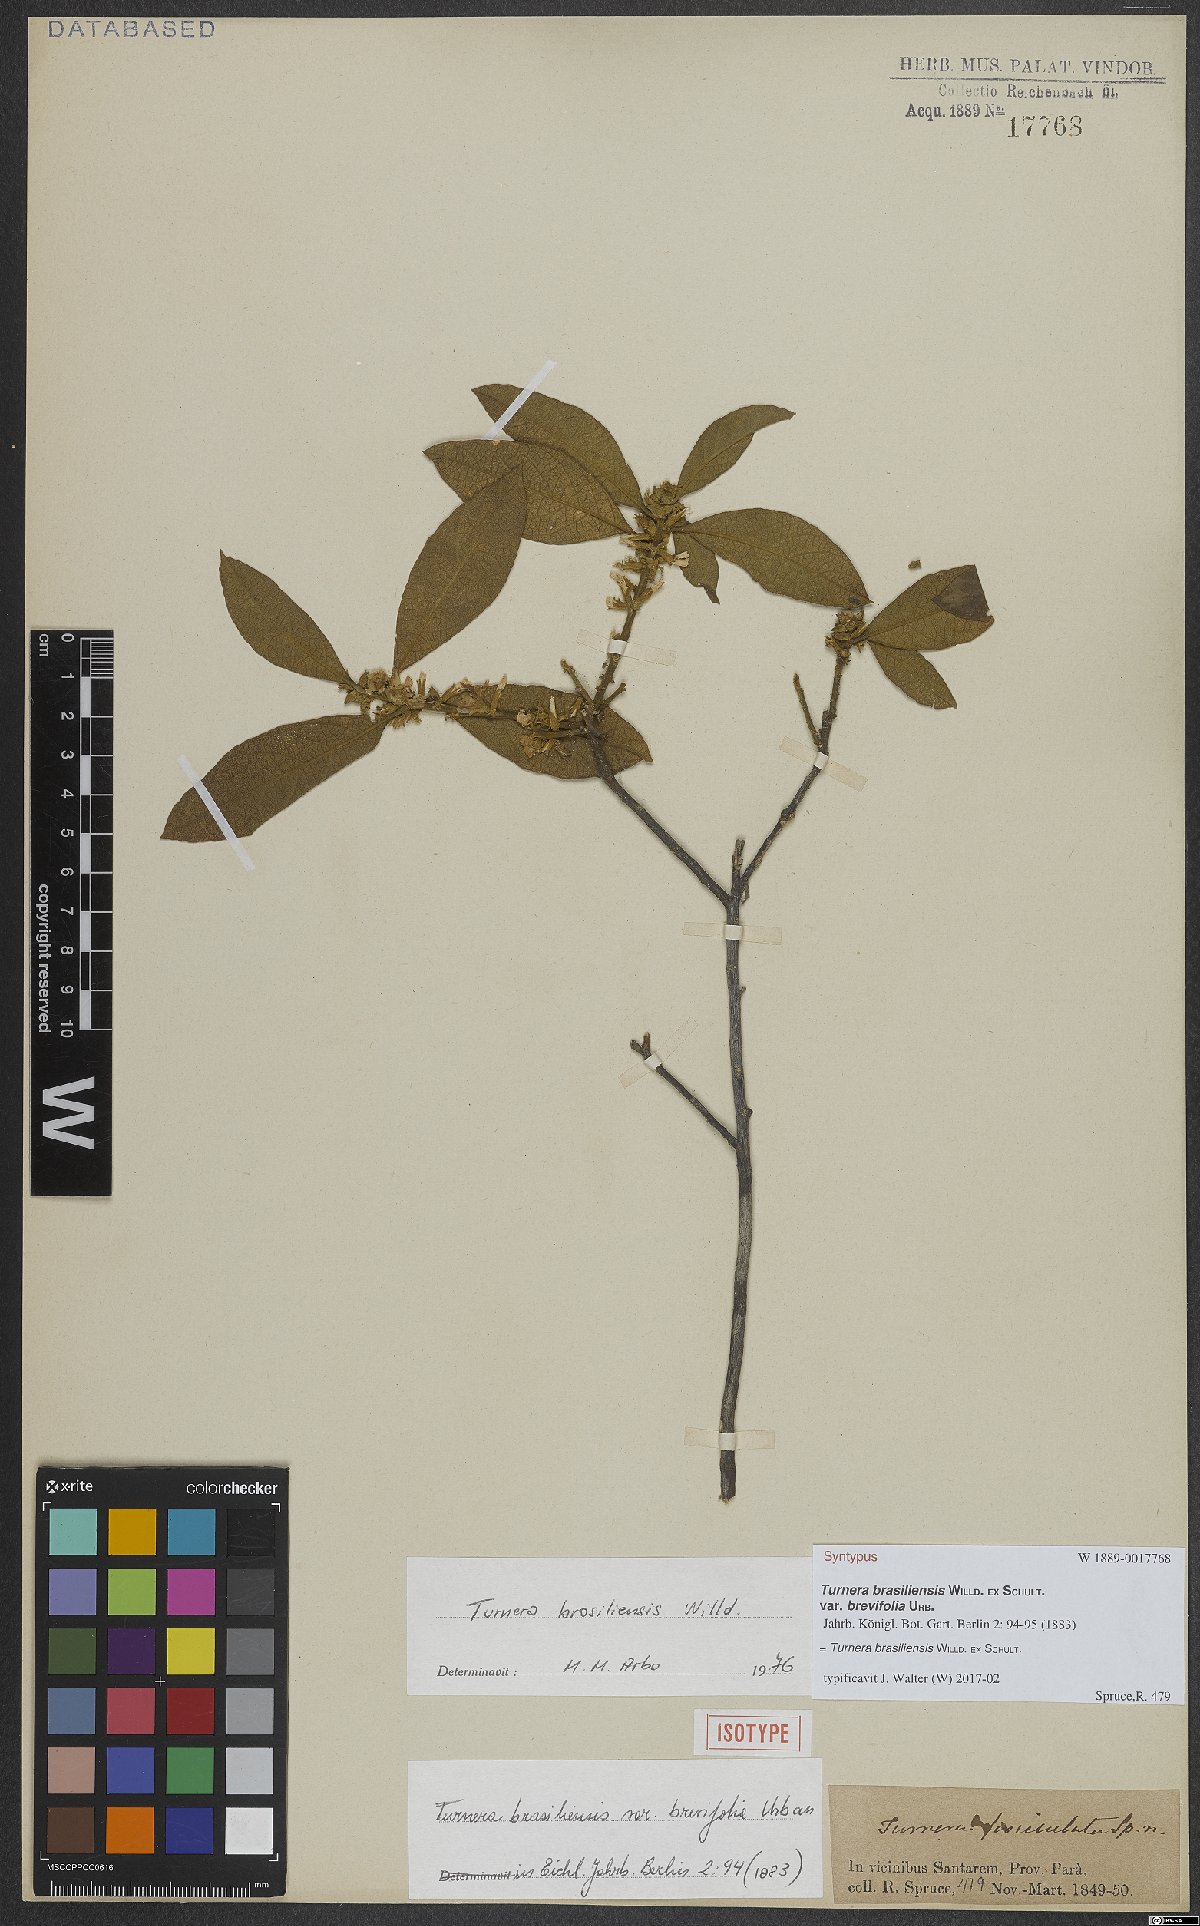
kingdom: Plantae
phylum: Tracheophyta
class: Magnoliopsida
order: Malpighiales
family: Turneraceae
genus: Turnera
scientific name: Turnera brasiliensis
